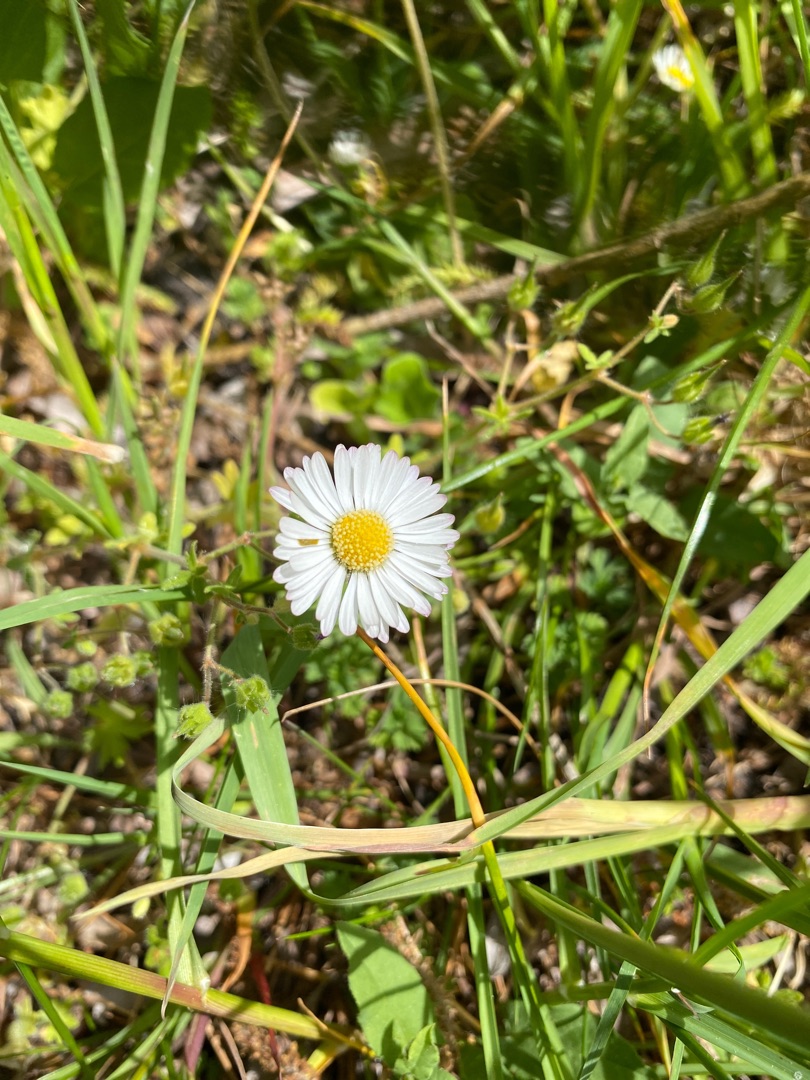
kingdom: Plantae
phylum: Tracheophyta
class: Magnoliopsida
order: Asterales
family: Asteraceae
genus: Bellis
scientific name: Bellis perennis
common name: Tusindfryd
